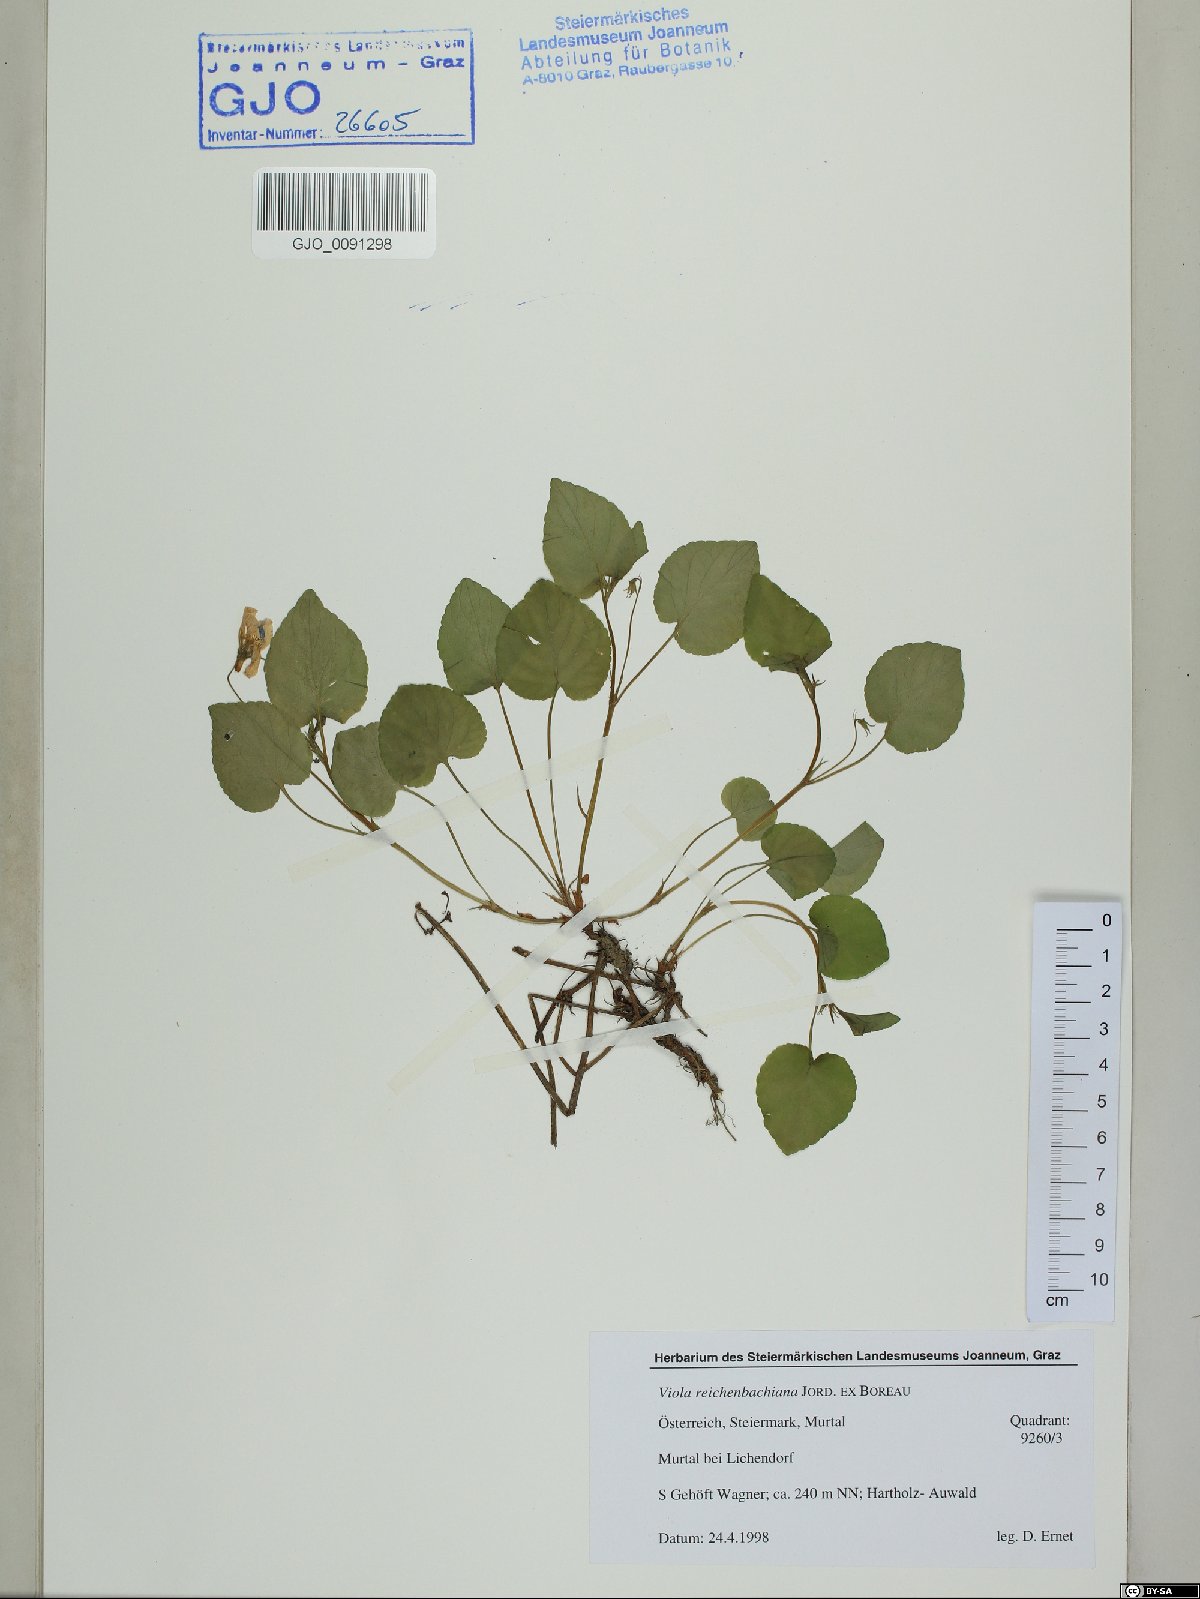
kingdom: Plantae
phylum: Tracheophyta
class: Magnoliopsida
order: Malpighiales
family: Violaceae
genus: Viola
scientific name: Viola reichenbachiana
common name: Early dog-violet
